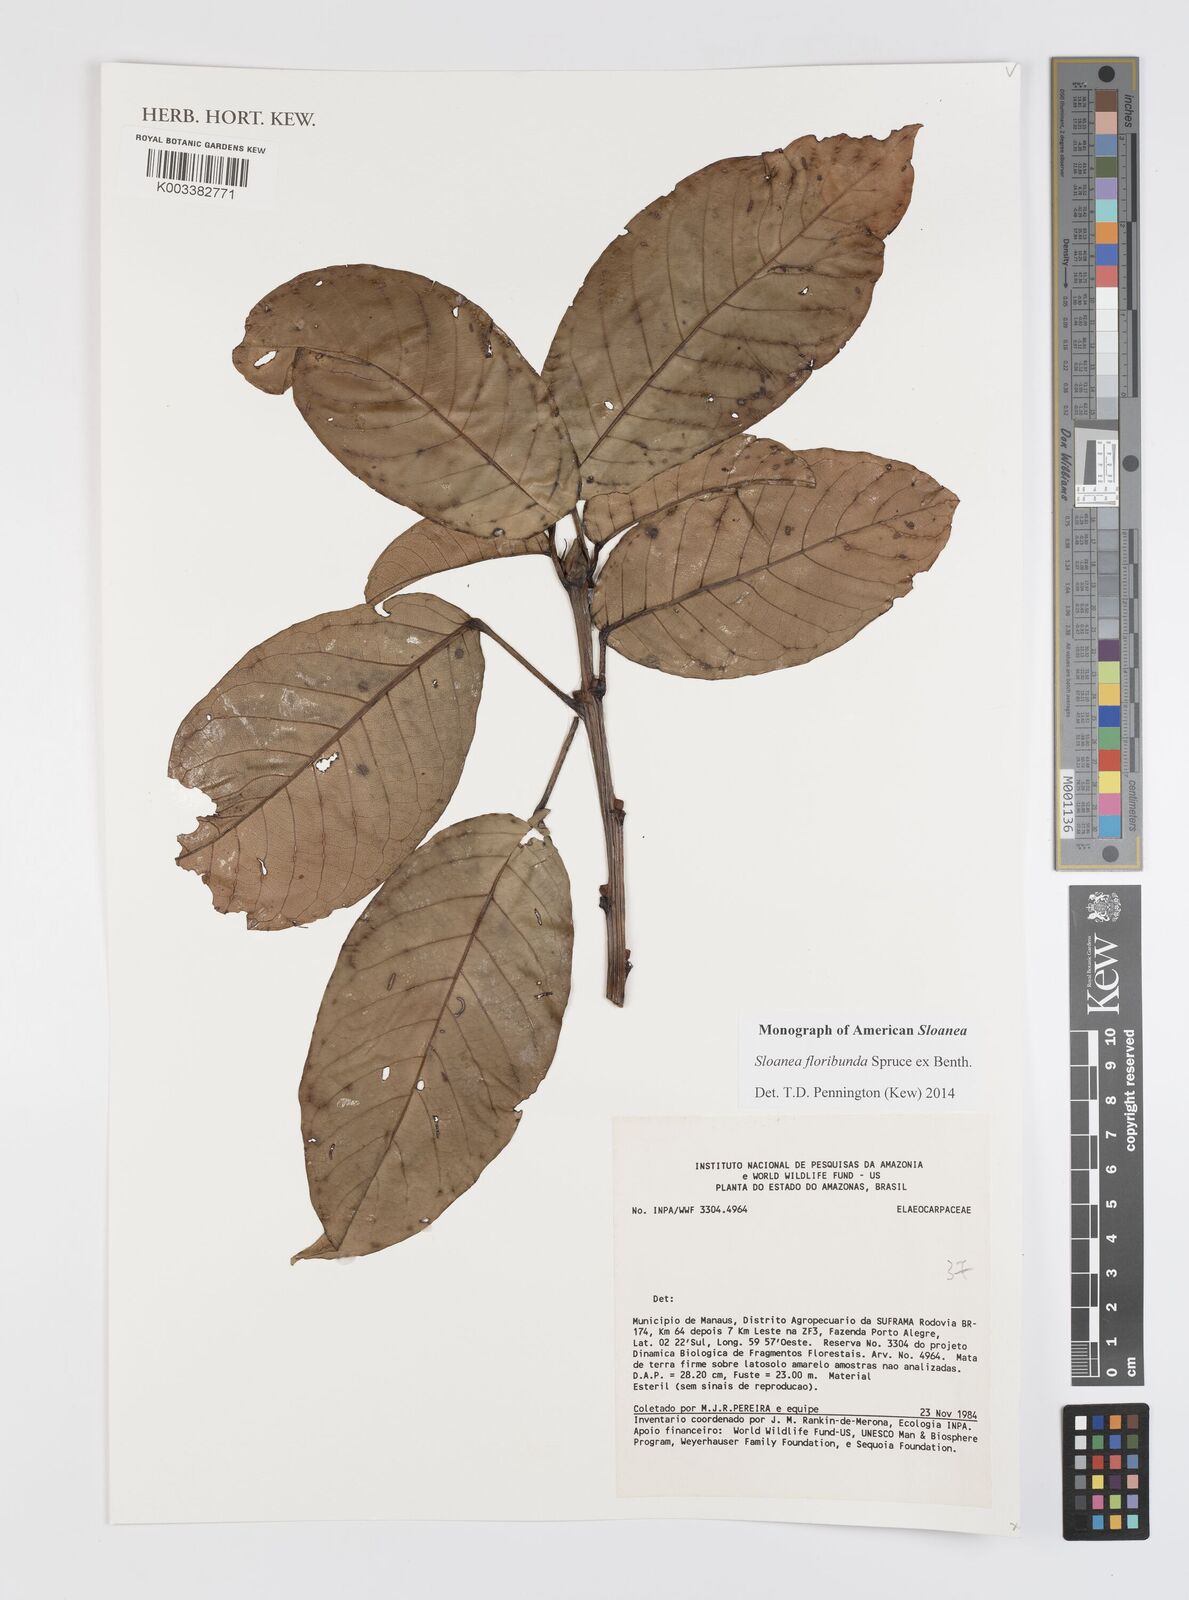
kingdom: Plantae
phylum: Tracheophyta
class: Magnoliopsida
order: Oxalidales
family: Elaeocarpaceae
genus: Sloanea
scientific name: Sloanea floribunda
